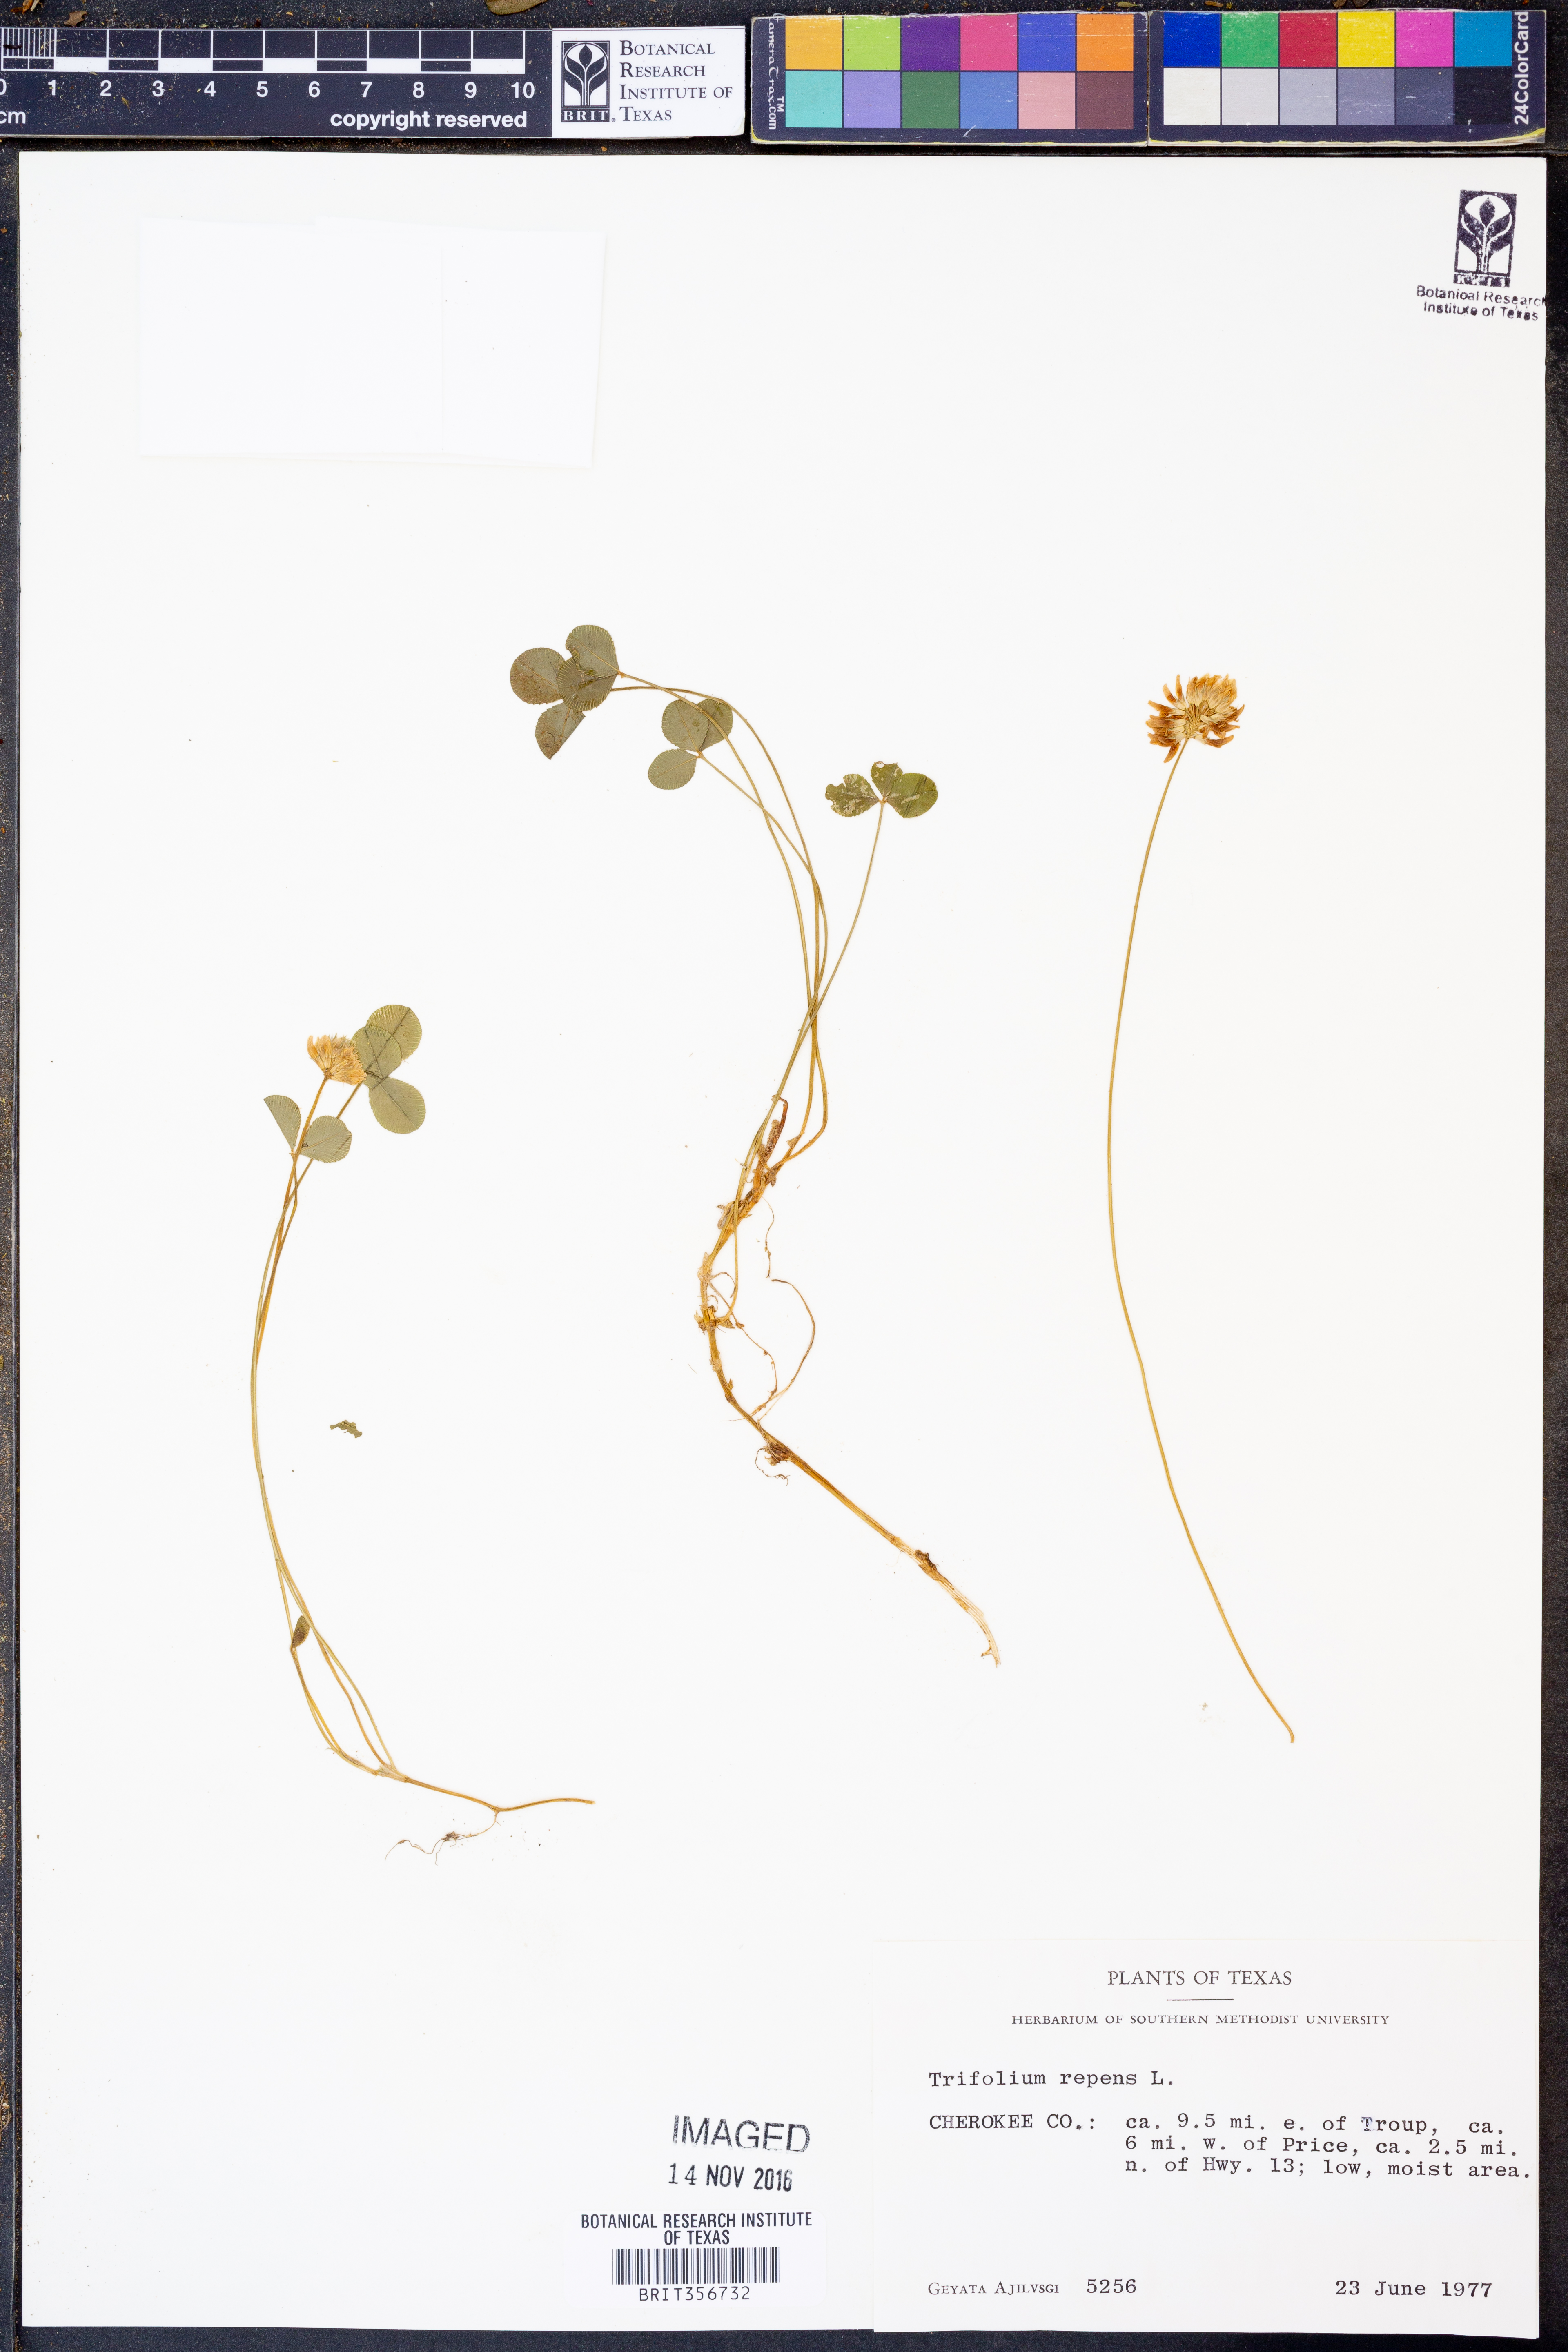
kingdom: Plantae
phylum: Tracheophyta
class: Magnoliopsida
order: Fabales
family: Fabaceae
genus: Trifolium
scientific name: Trifolium repens
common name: White clover
